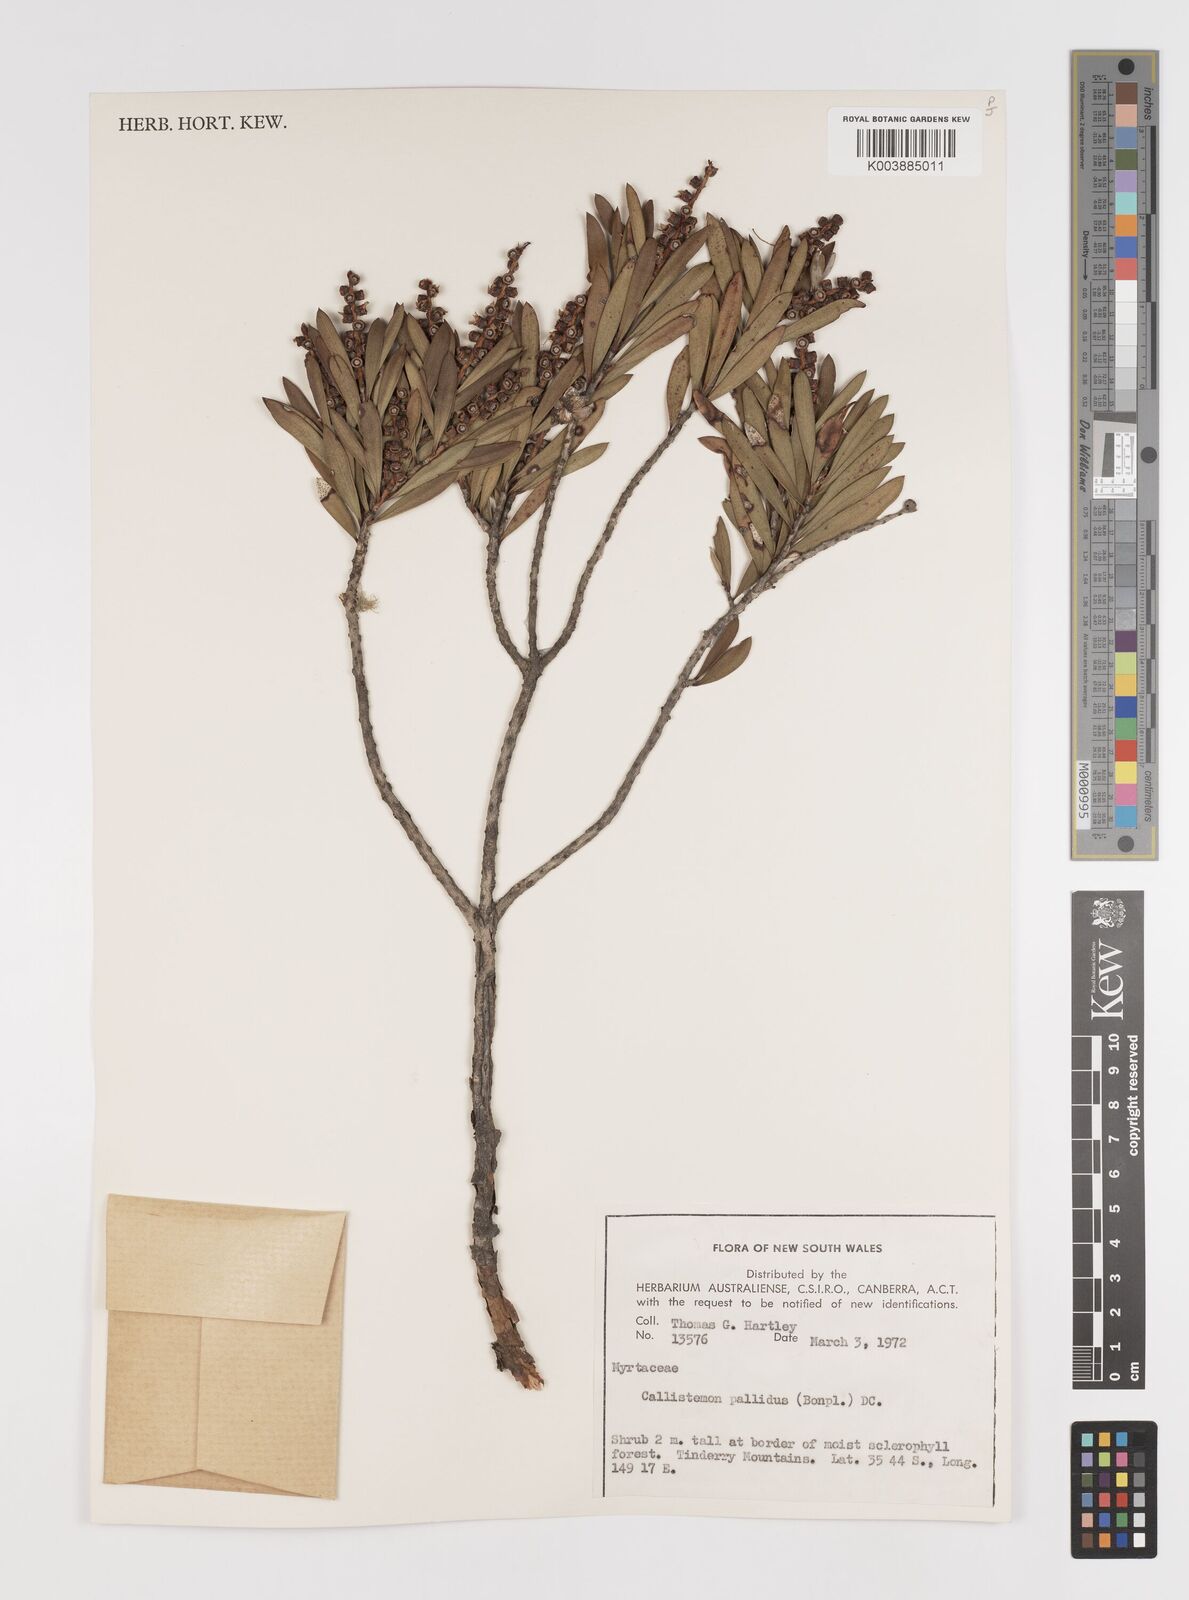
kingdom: Plantae
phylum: Tracheophyta
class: Magnoliopsida
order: Myrtales
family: Myrtaceae
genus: Melaleuca
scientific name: Melaleuca pallida
